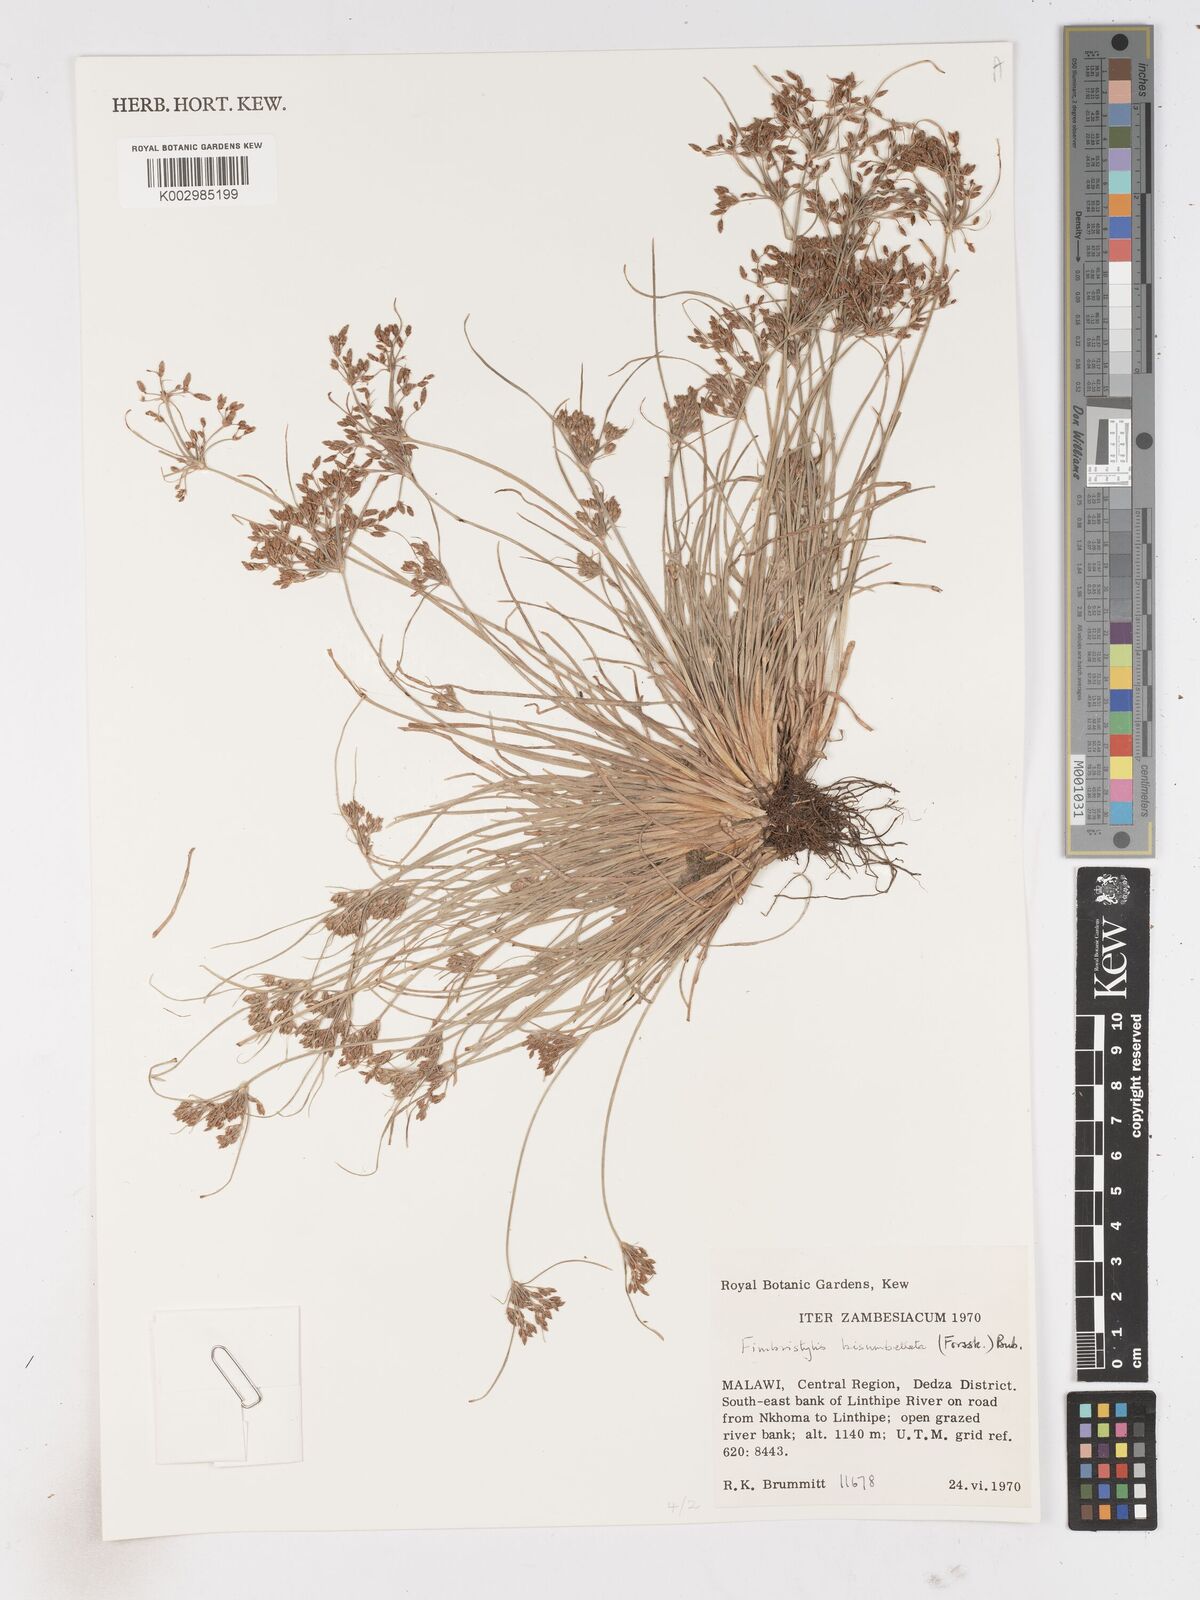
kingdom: Plantae
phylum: Tracheophyta
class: Liliopsida
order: Poales
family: Cyperaceae
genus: Fimbristylis
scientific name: Fimbristylis bisumbellata
